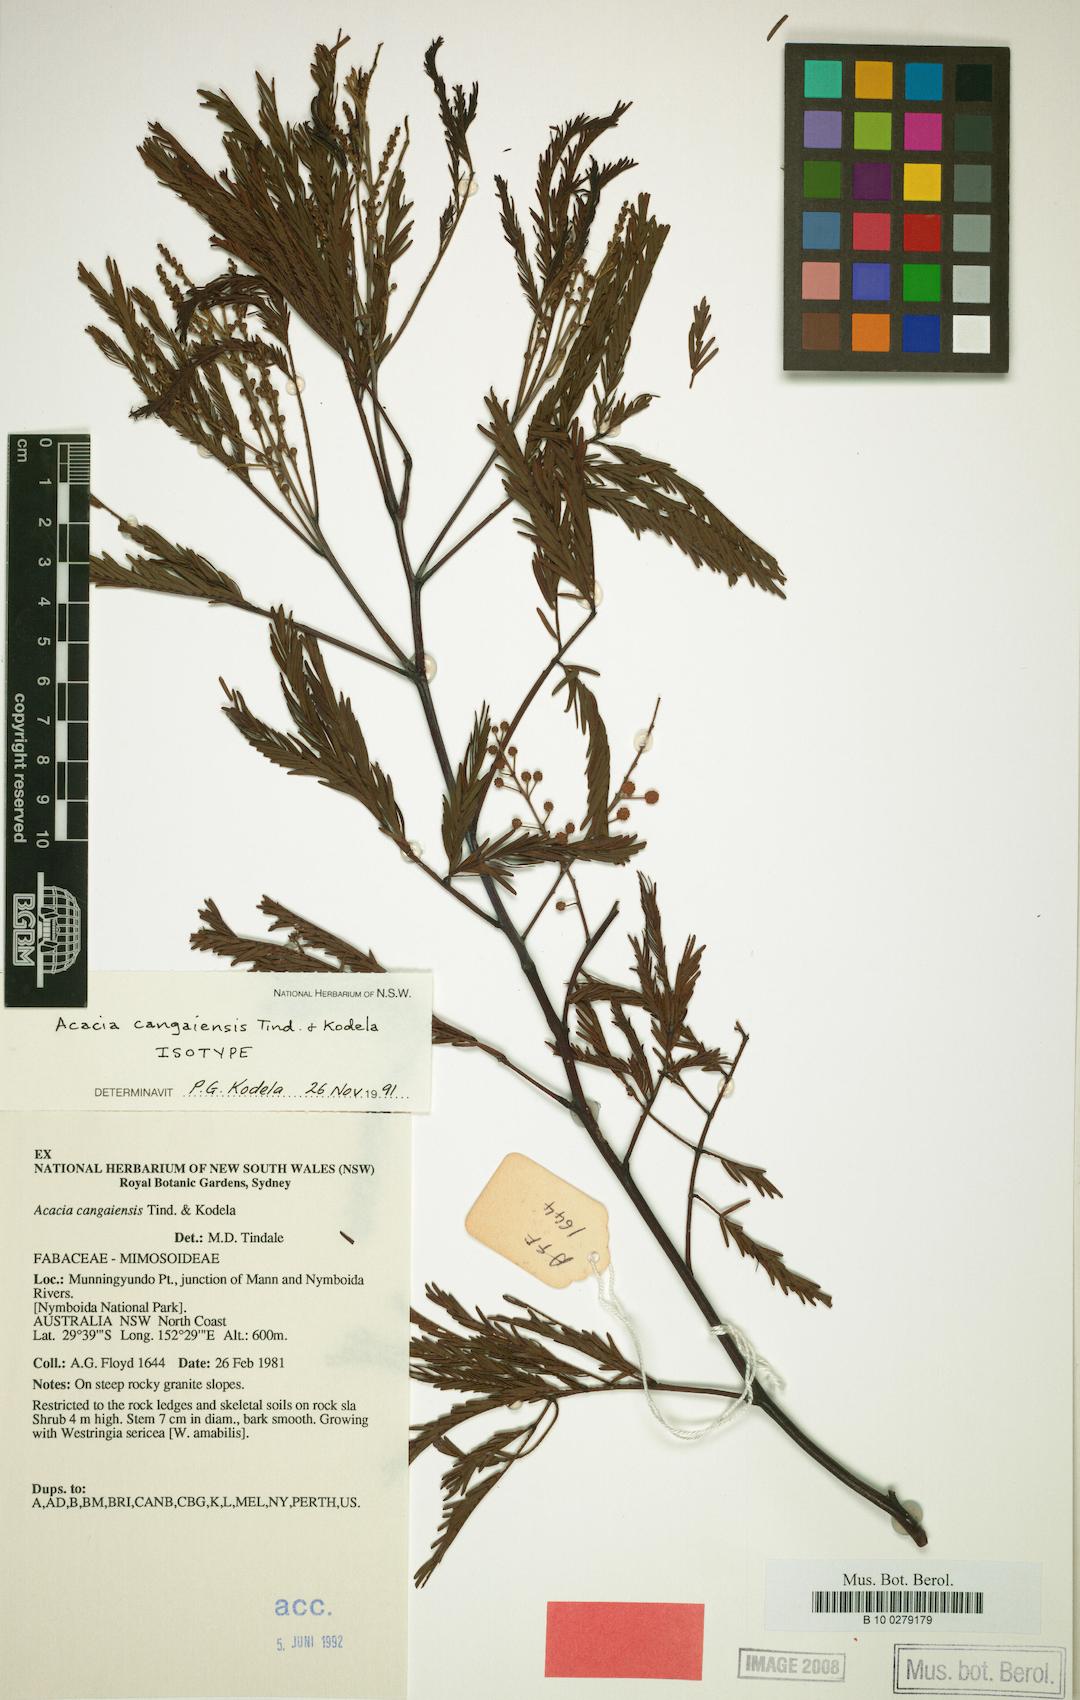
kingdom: Plantae
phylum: Tracheophyta
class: Magnoliopsida
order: Fabales
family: Fabaceae
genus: Acacia
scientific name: Acacia cangaiensis
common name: Cangai wattle
